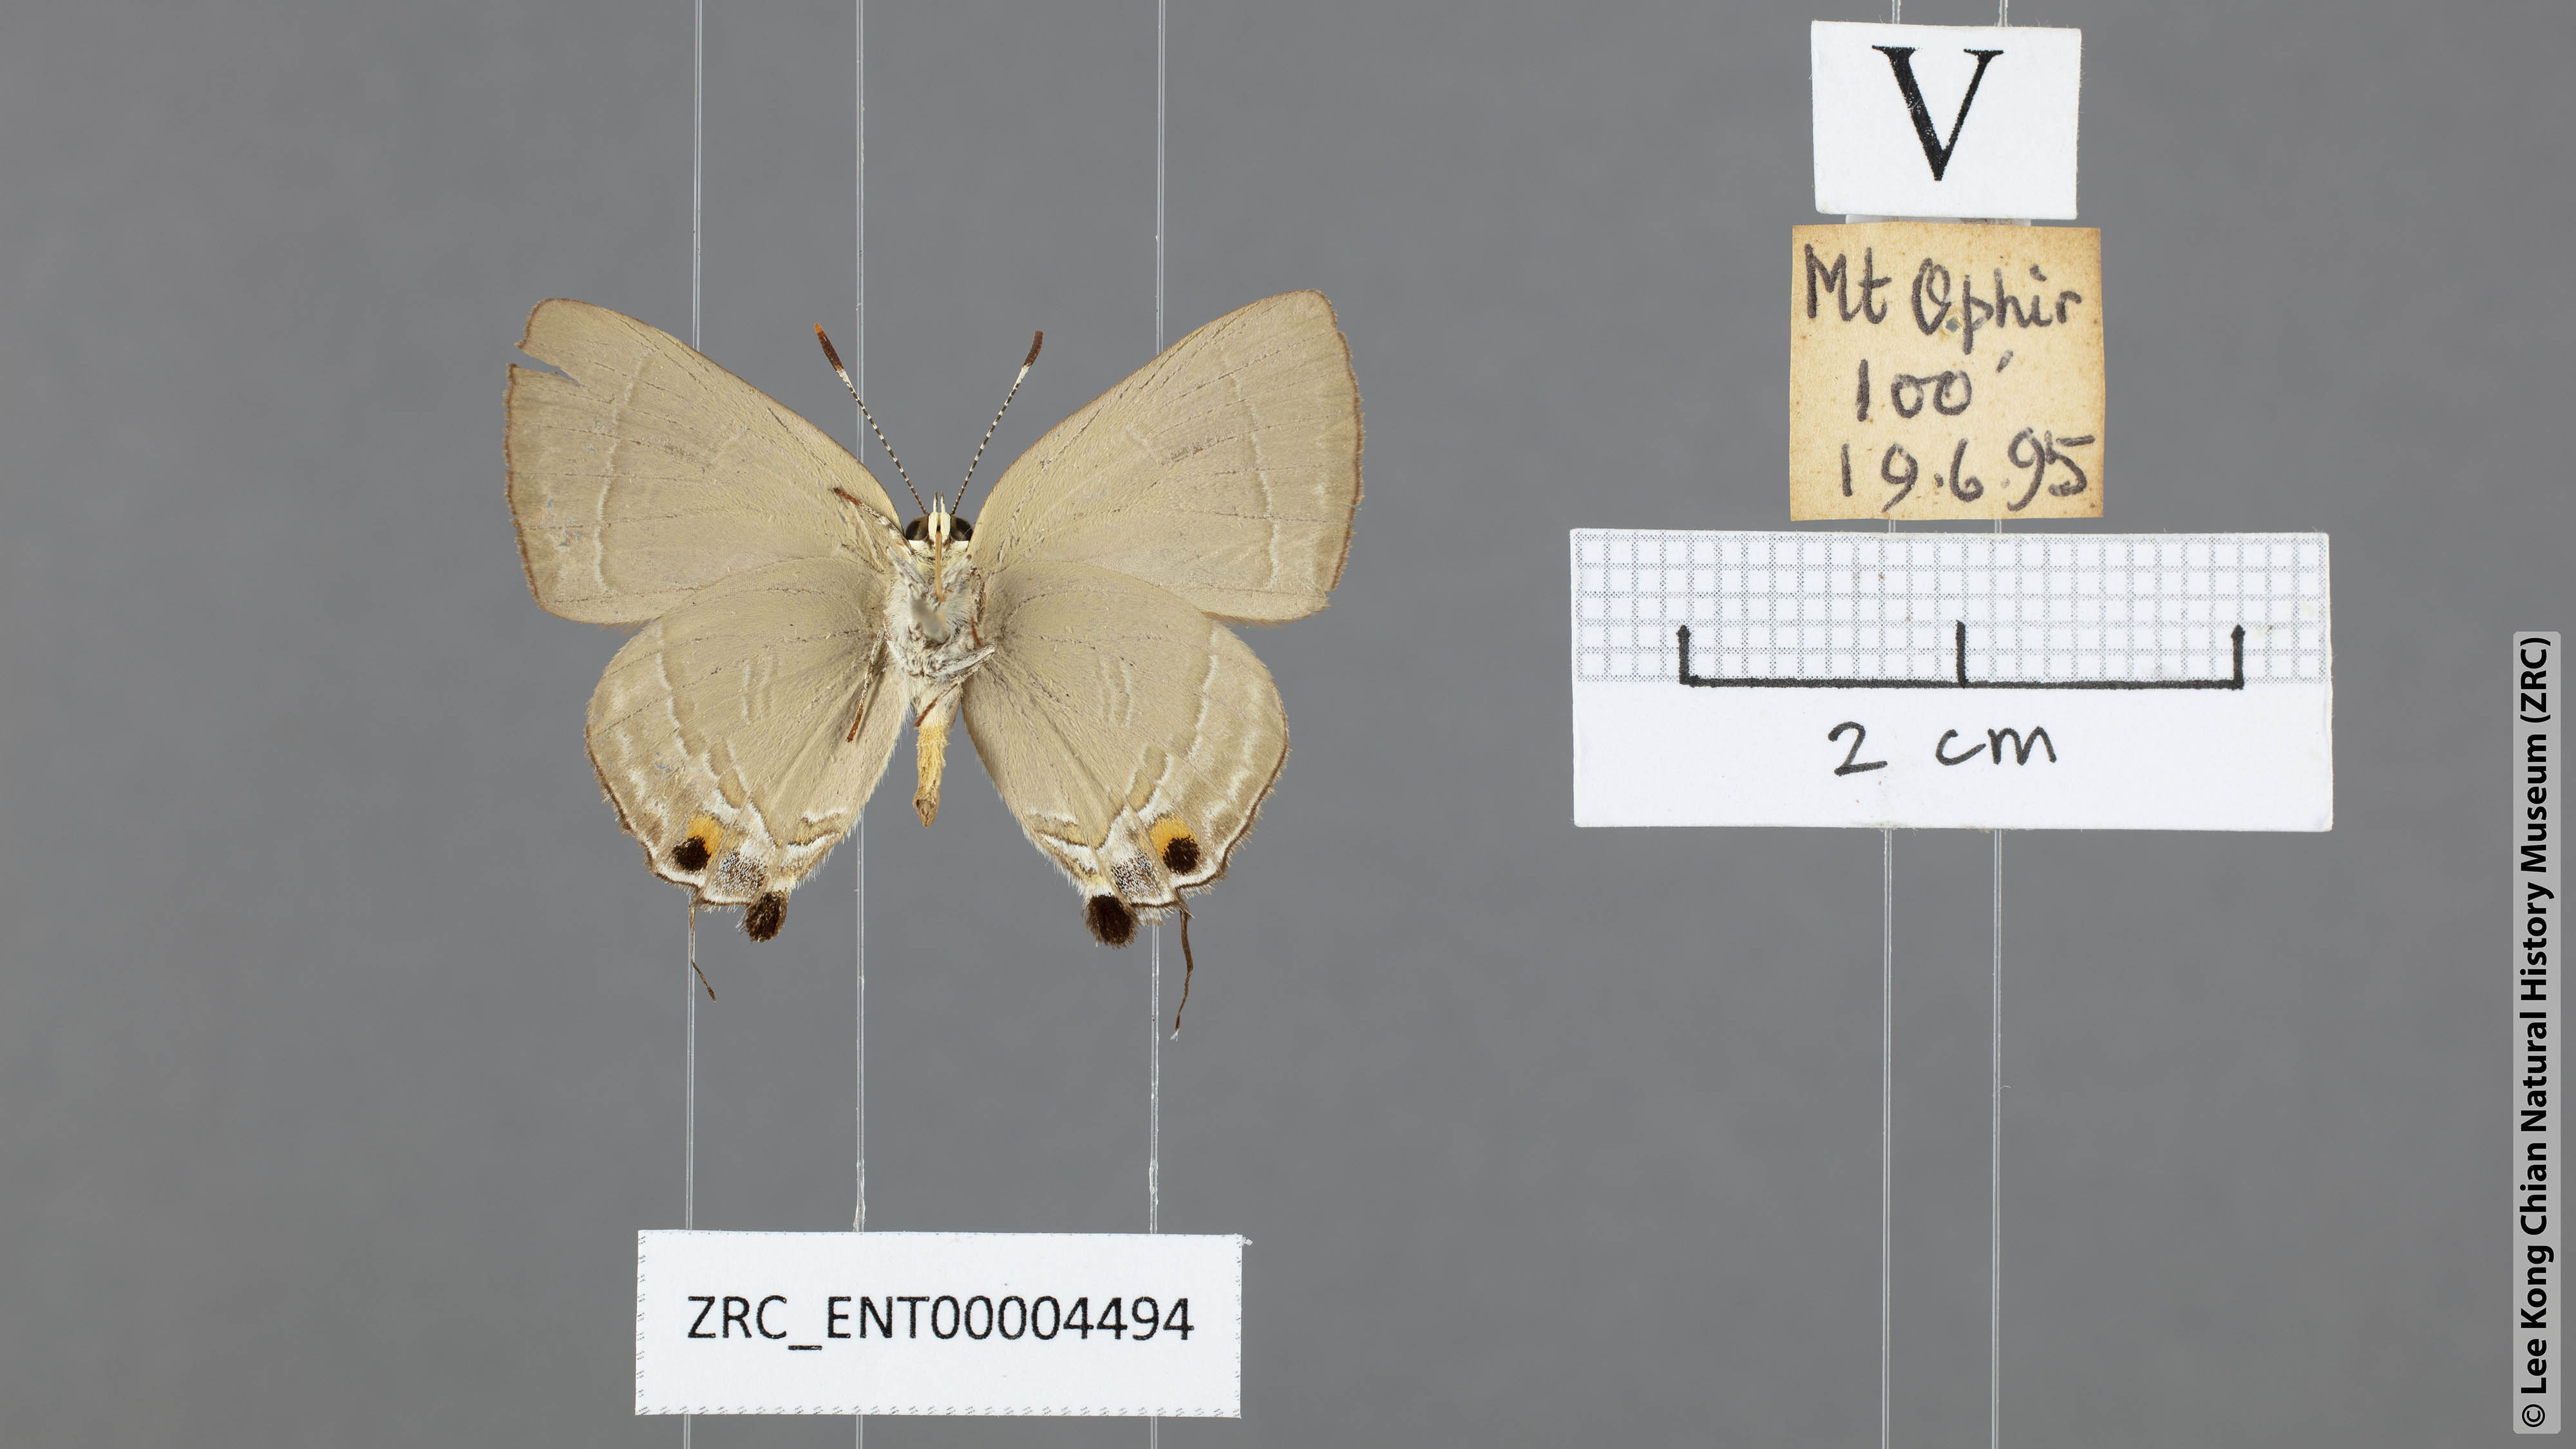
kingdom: Animalia
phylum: Arthropoda
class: Insecta
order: Lepidoptera
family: Lycaenidae
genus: Rapala
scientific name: Rapala iarbas
